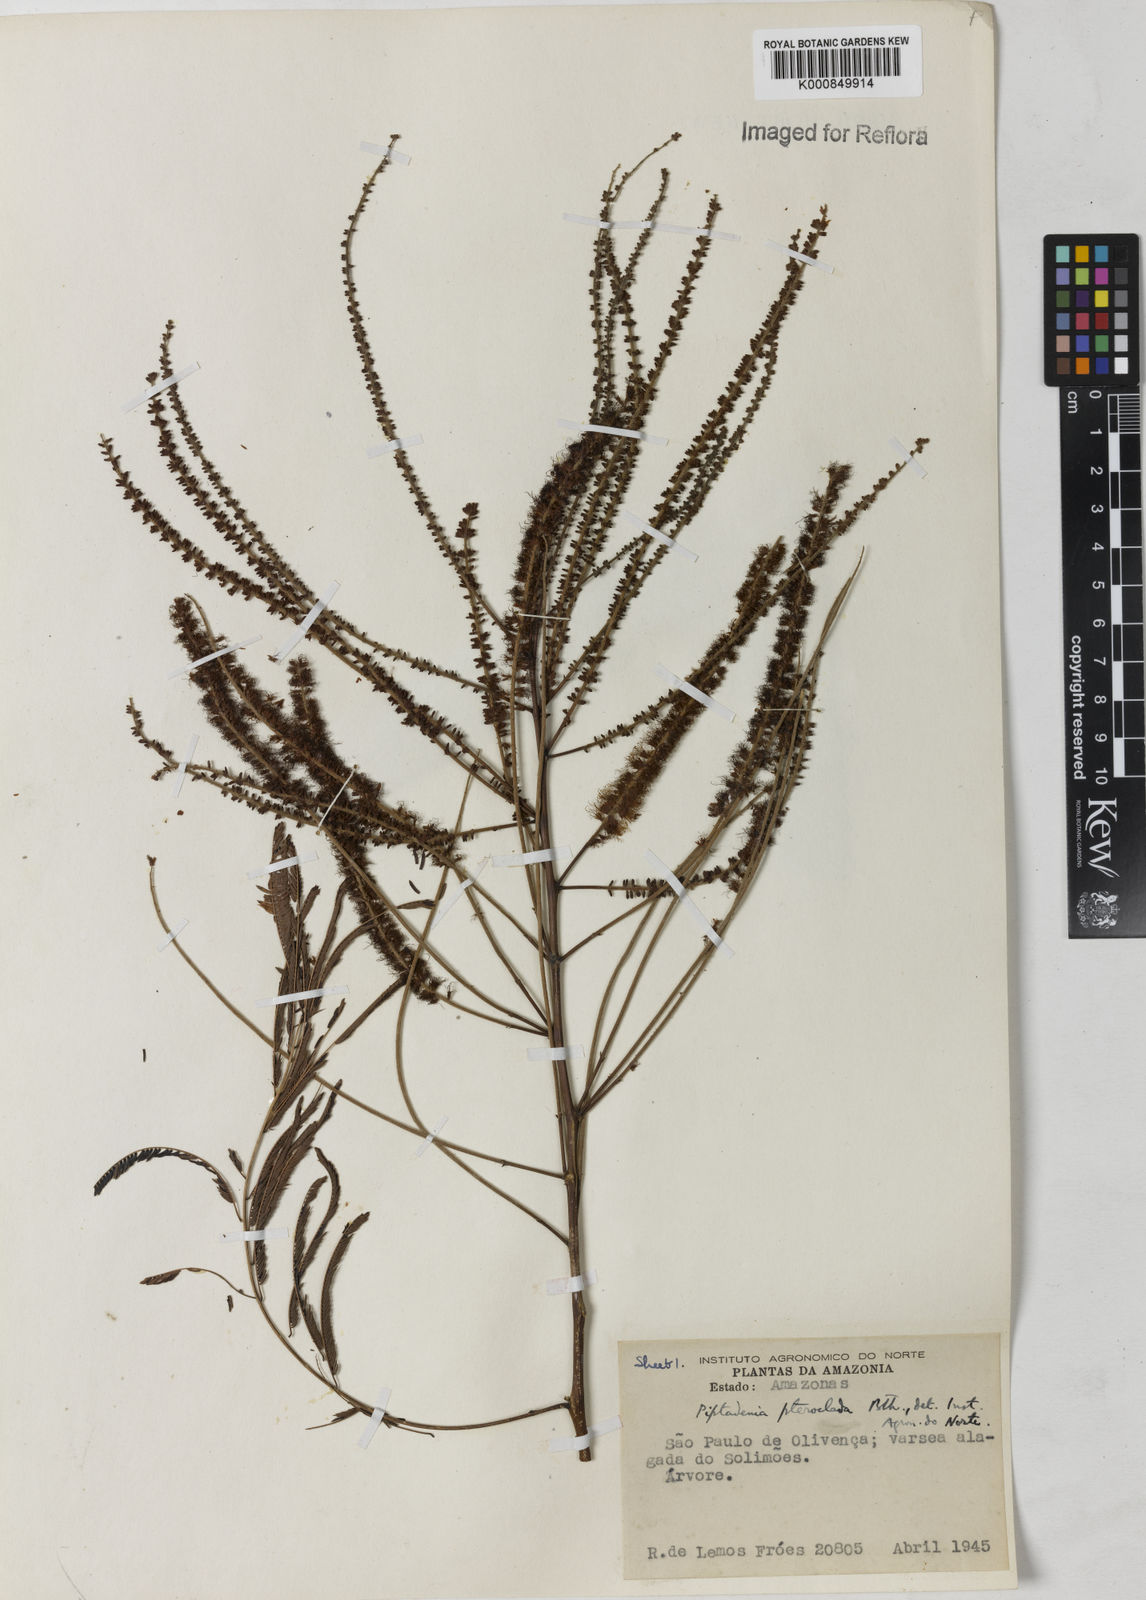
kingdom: Plantae
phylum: Tracheophyta
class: Magnoliopsida
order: Fabales
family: Fabaceae
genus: Piptadenia
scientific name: Piptadenia pteroclada
